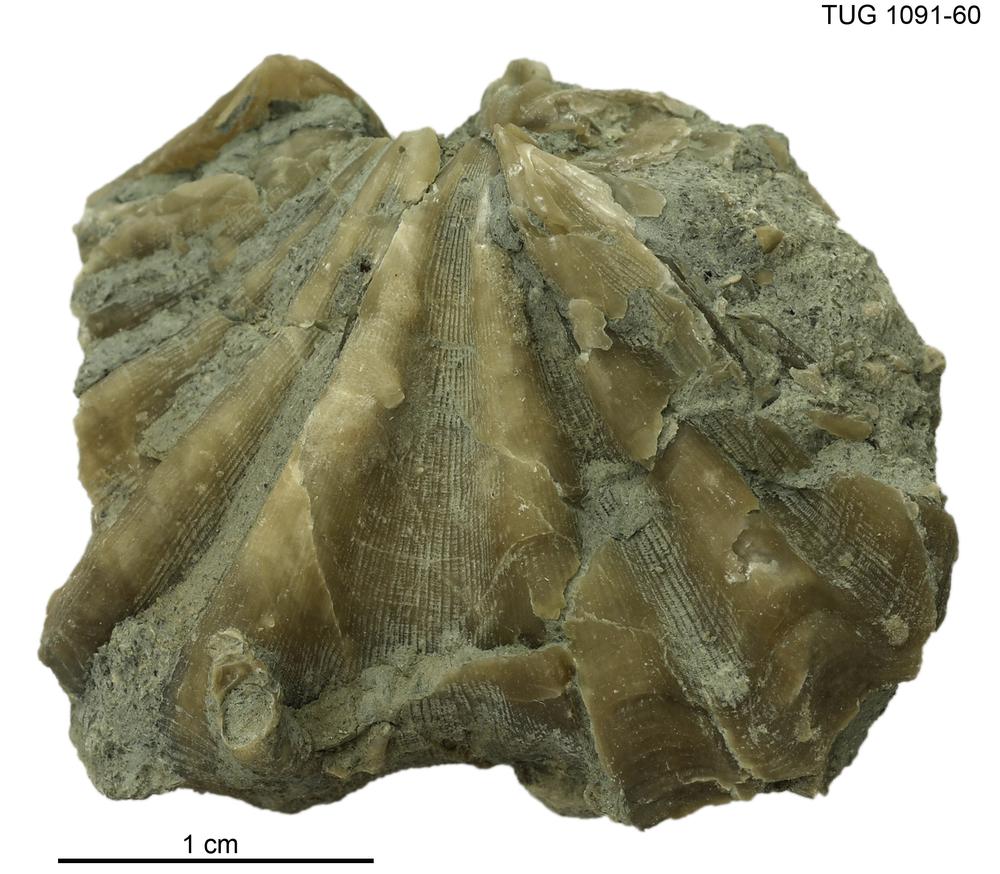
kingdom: Animalia
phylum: Brachiopoda
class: Rhynchonellata
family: Delthyrididae
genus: Delthyris
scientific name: Delthyris
